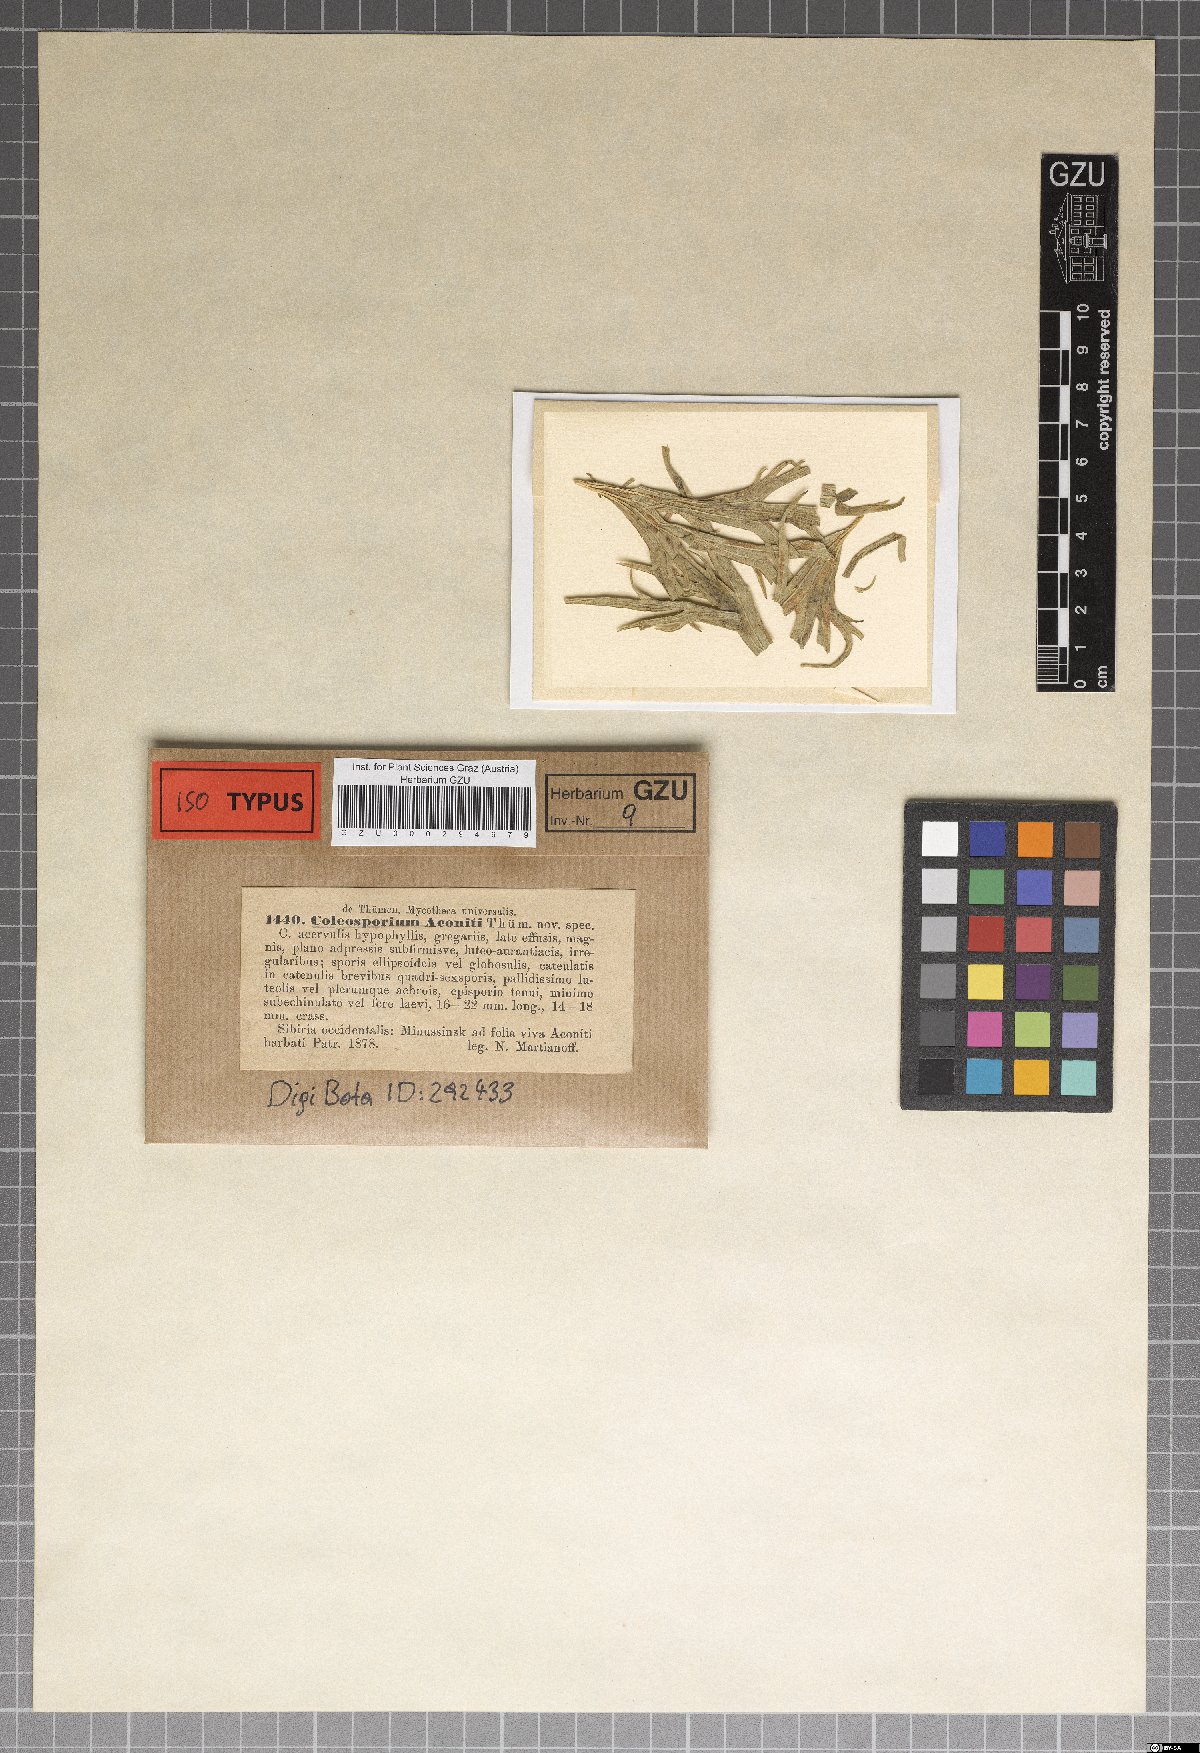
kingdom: Fungi
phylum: Basidiomycota
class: Pucciniomycetes
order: Pucciniales
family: Coleosporiaceae
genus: Coleosporium
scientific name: Coleosporium
